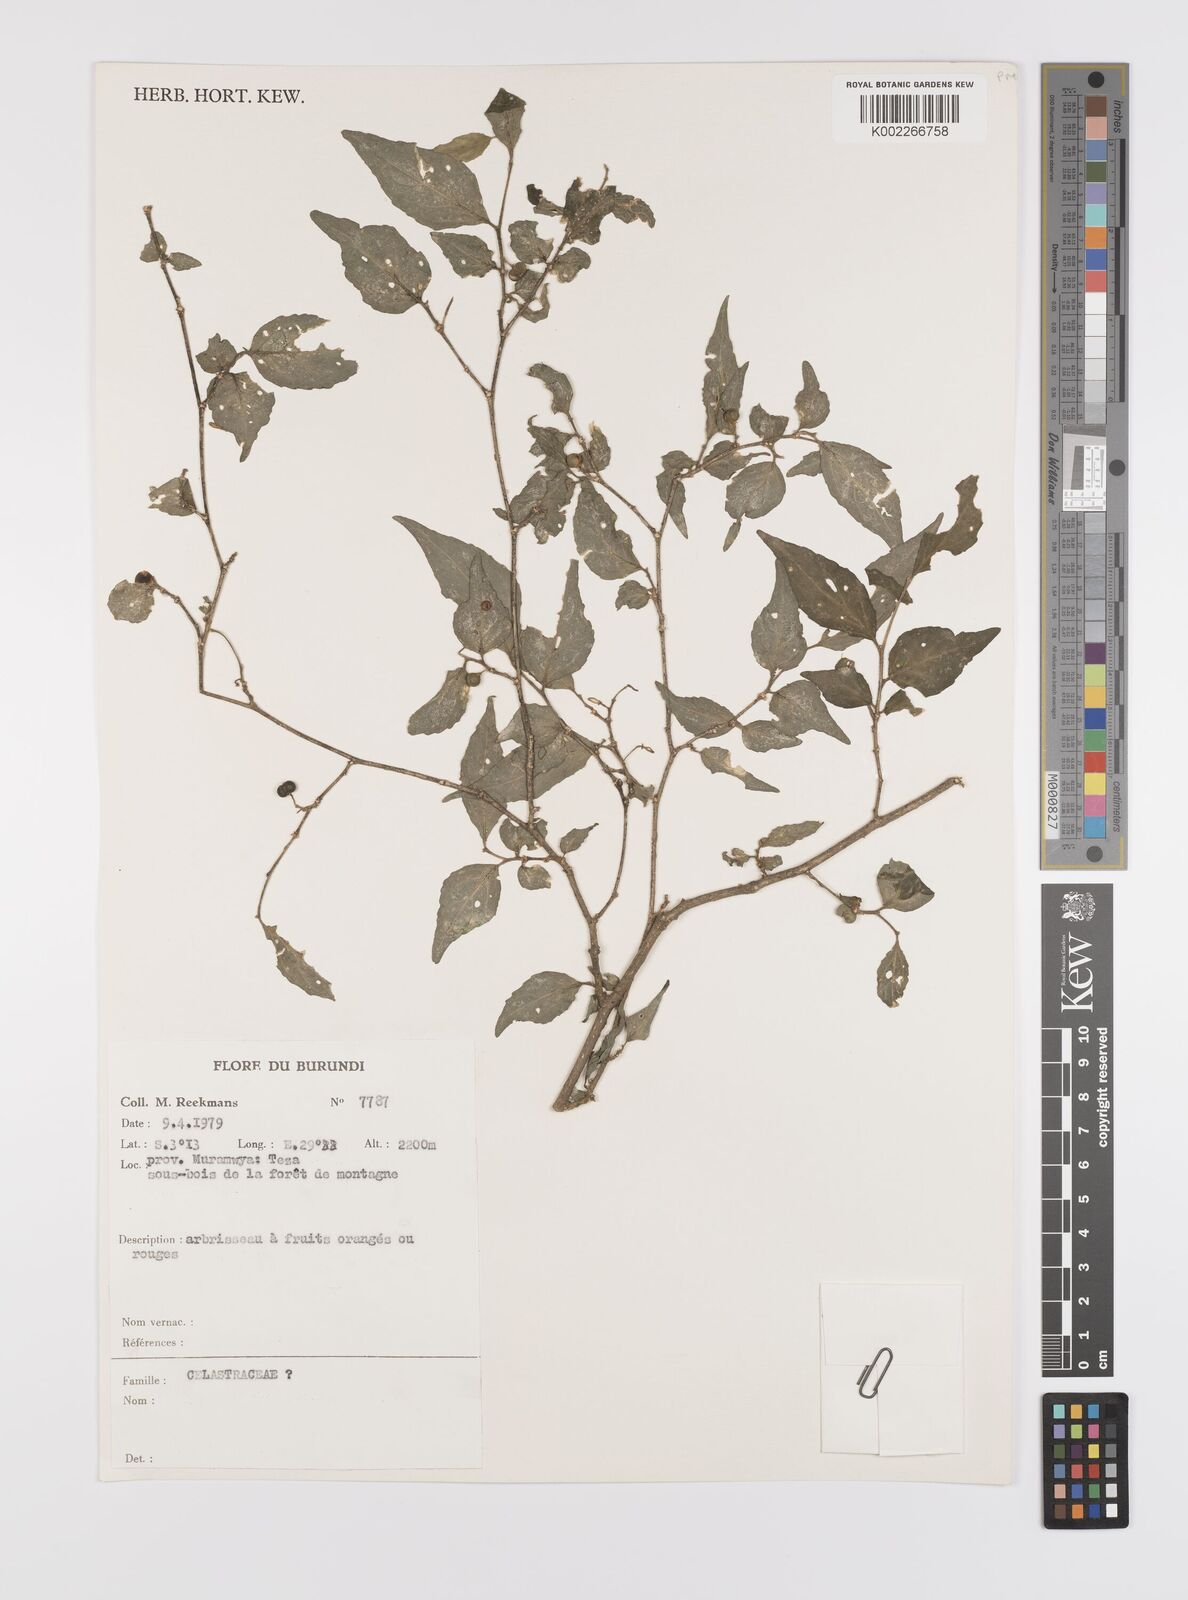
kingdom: Plantae
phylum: Tracheophyta
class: Magnoliopsida
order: Celastrales
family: Celastraceae
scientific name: Celastraceae
